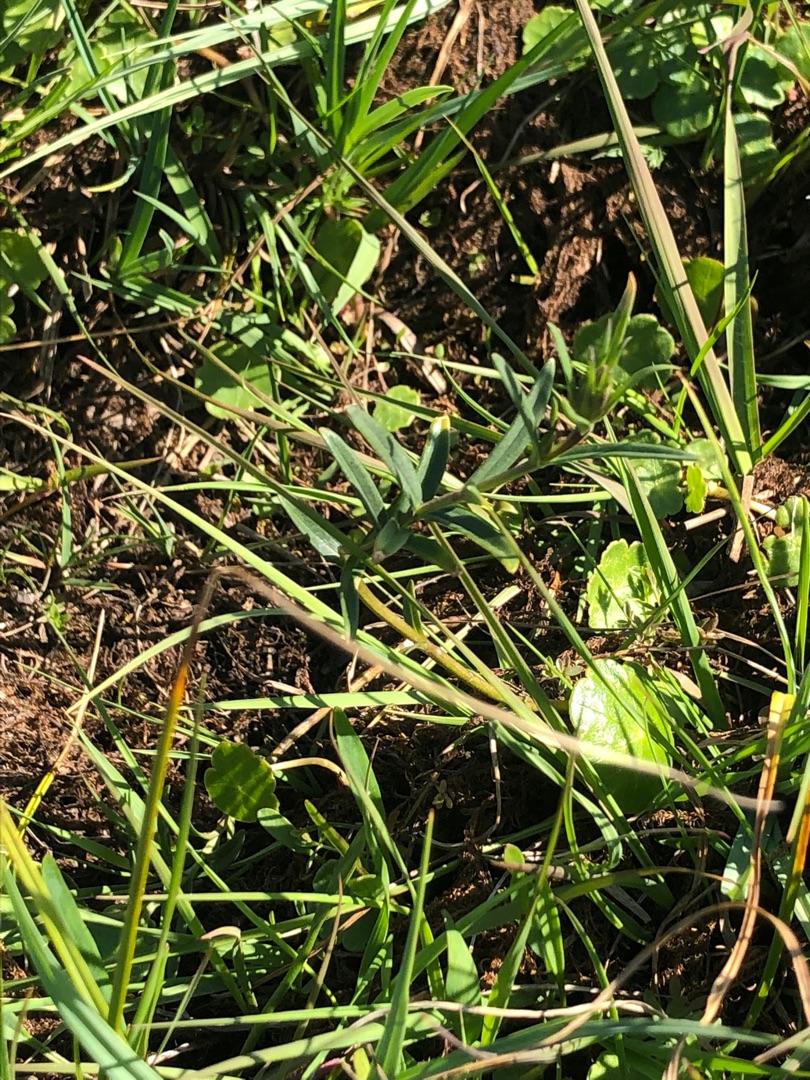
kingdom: Plantae
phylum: Tracheophyta
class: Magnoliopsida
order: Gentianales
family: Gentianaceae
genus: Gentiana
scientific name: Gentiana pneumonanthe
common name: Klokke-ensian
